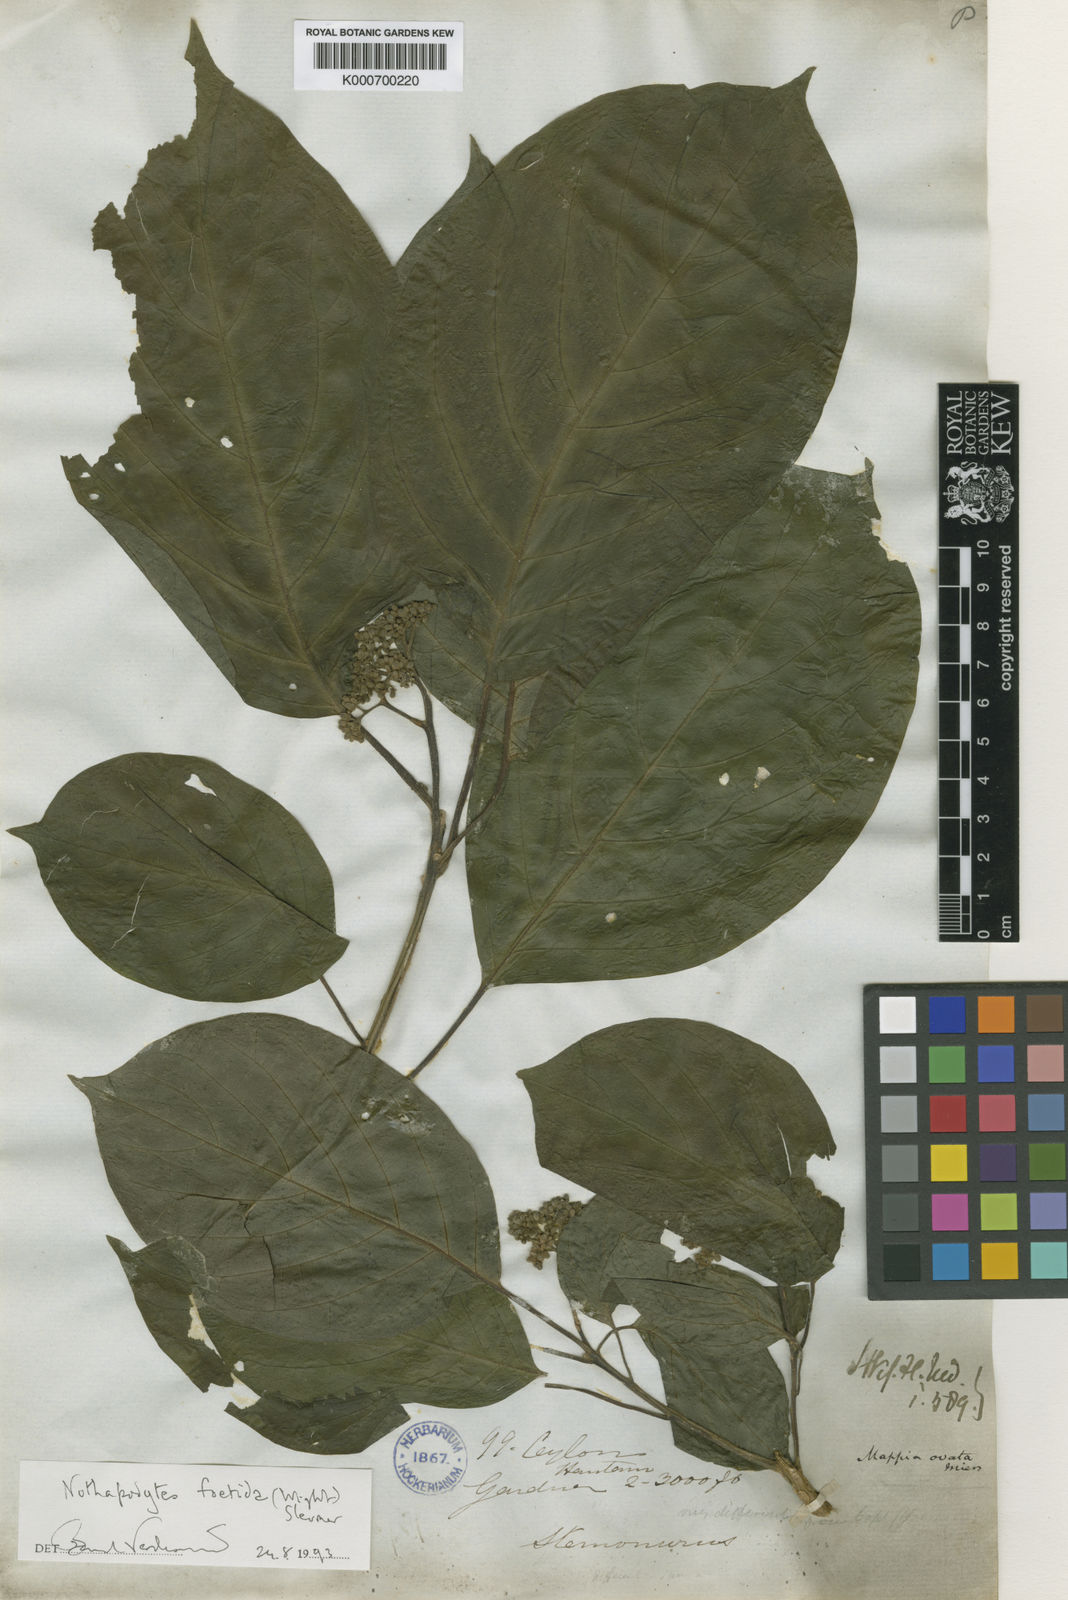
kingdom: Plantae
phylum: Tracheophyta
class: Magnoliopsida
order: Icacinales
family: Icacinaceae
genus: Nothapodytes
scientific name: Nothapodytes nimmoniana
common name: Nothapodytes
